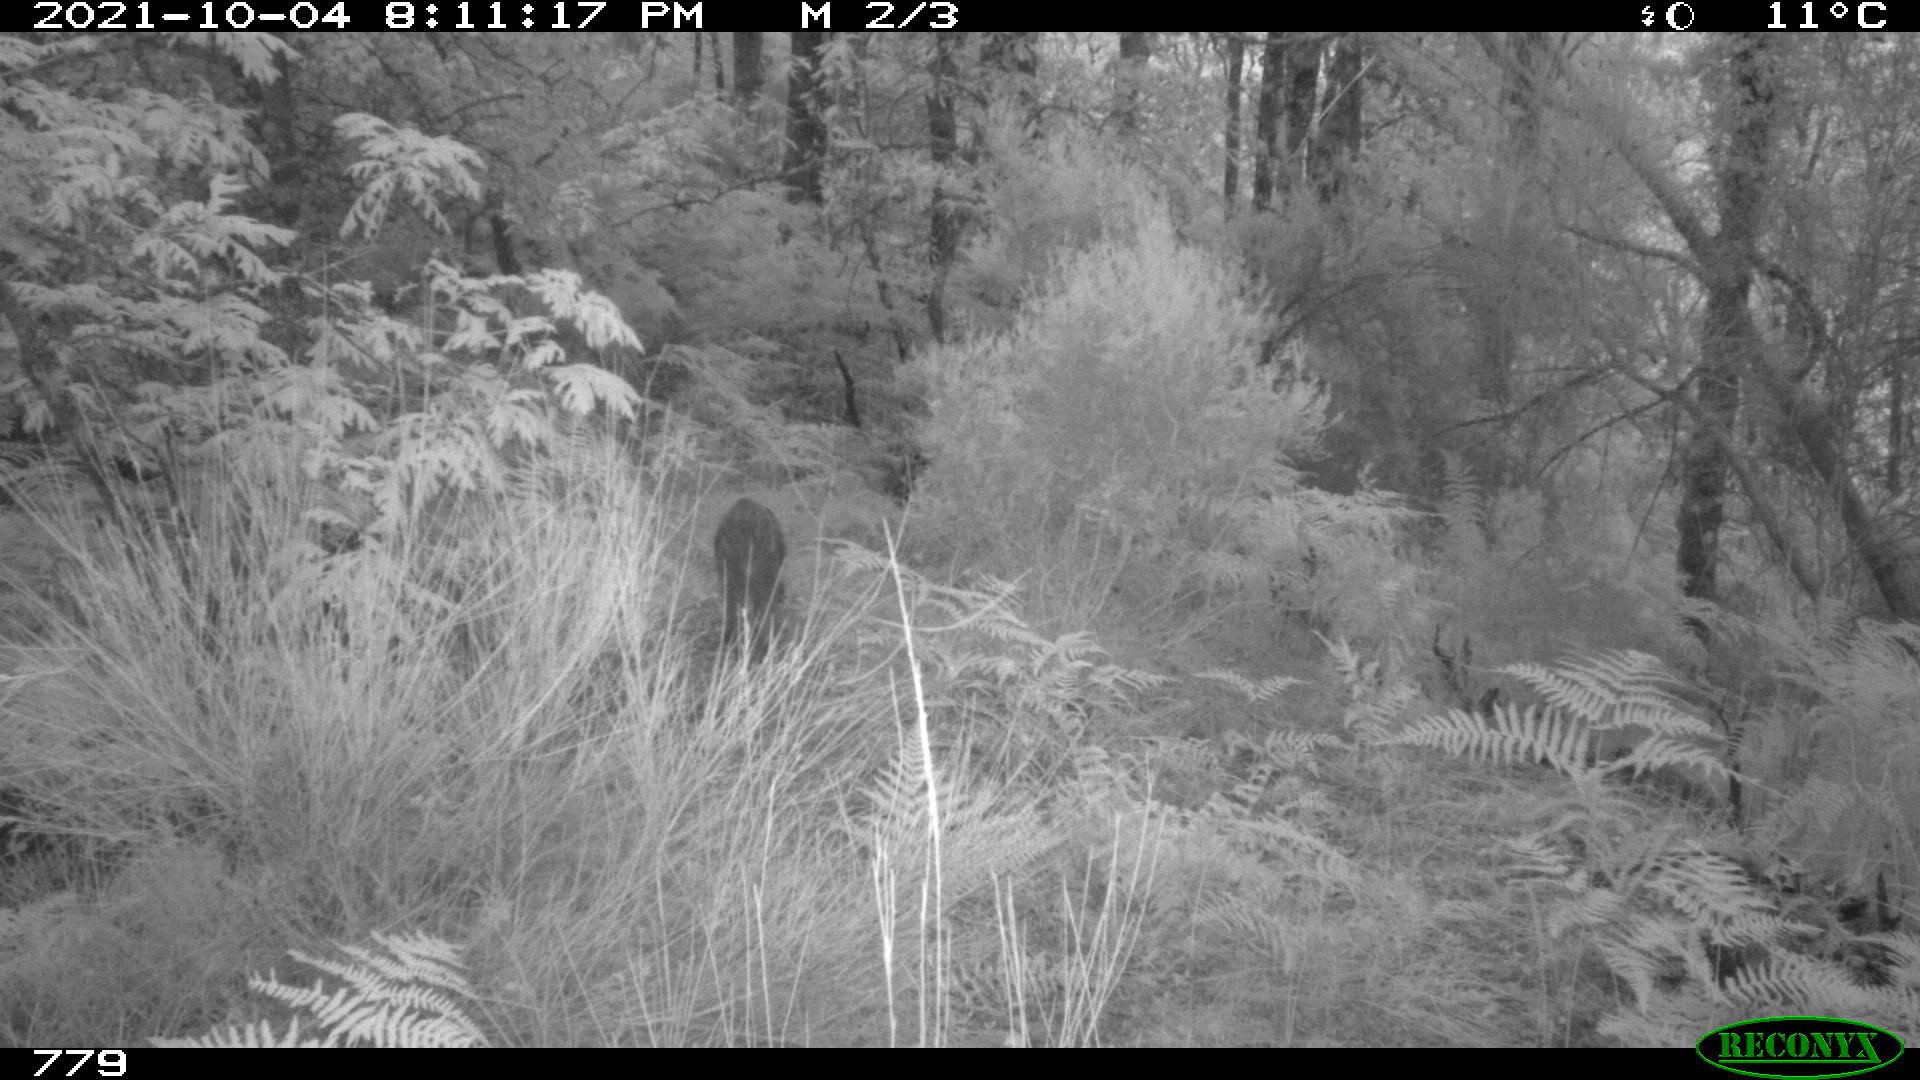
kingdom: Animalia
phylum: Chordata
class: Mammalia
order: Artiodactyla
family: Suidae
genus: Sus
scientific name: Sus scrofa
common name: Wild boar
